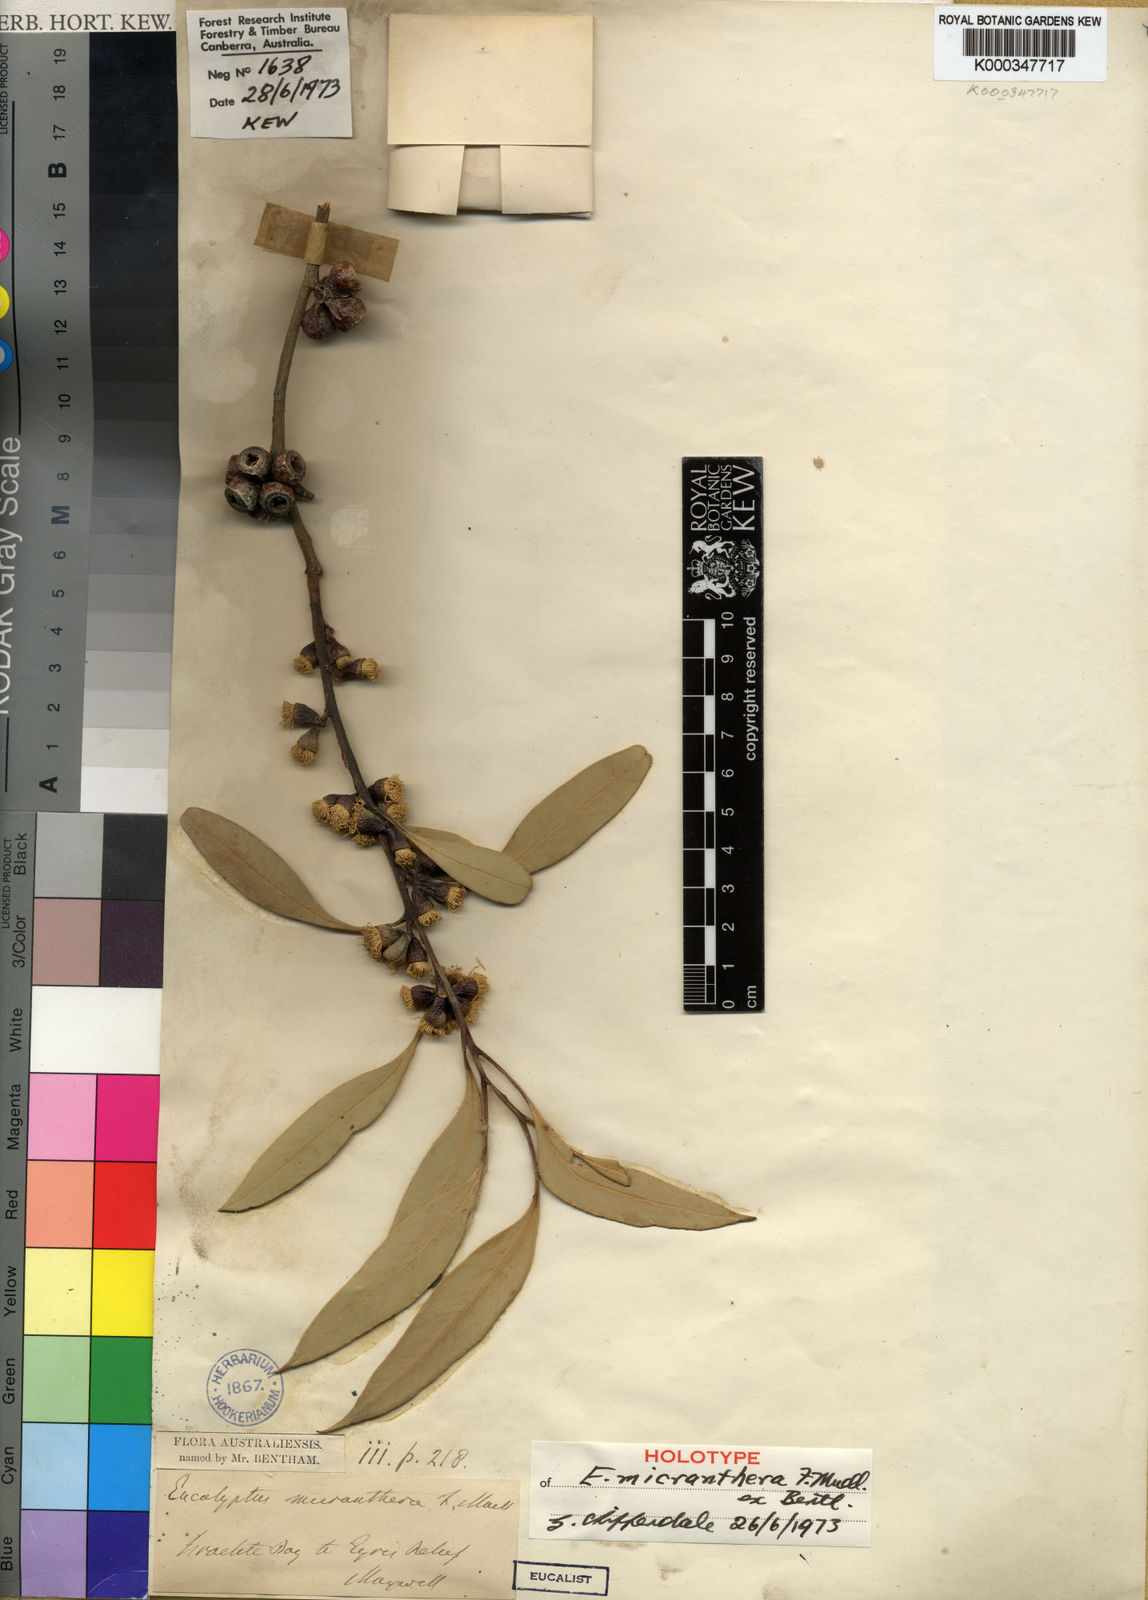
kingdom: Plantae
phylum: Tracheophyta
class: Magnoliopsida
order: Myrtales
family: Myrtaceae
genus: Eucalyptus
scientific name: Eucalyptus micranthera
